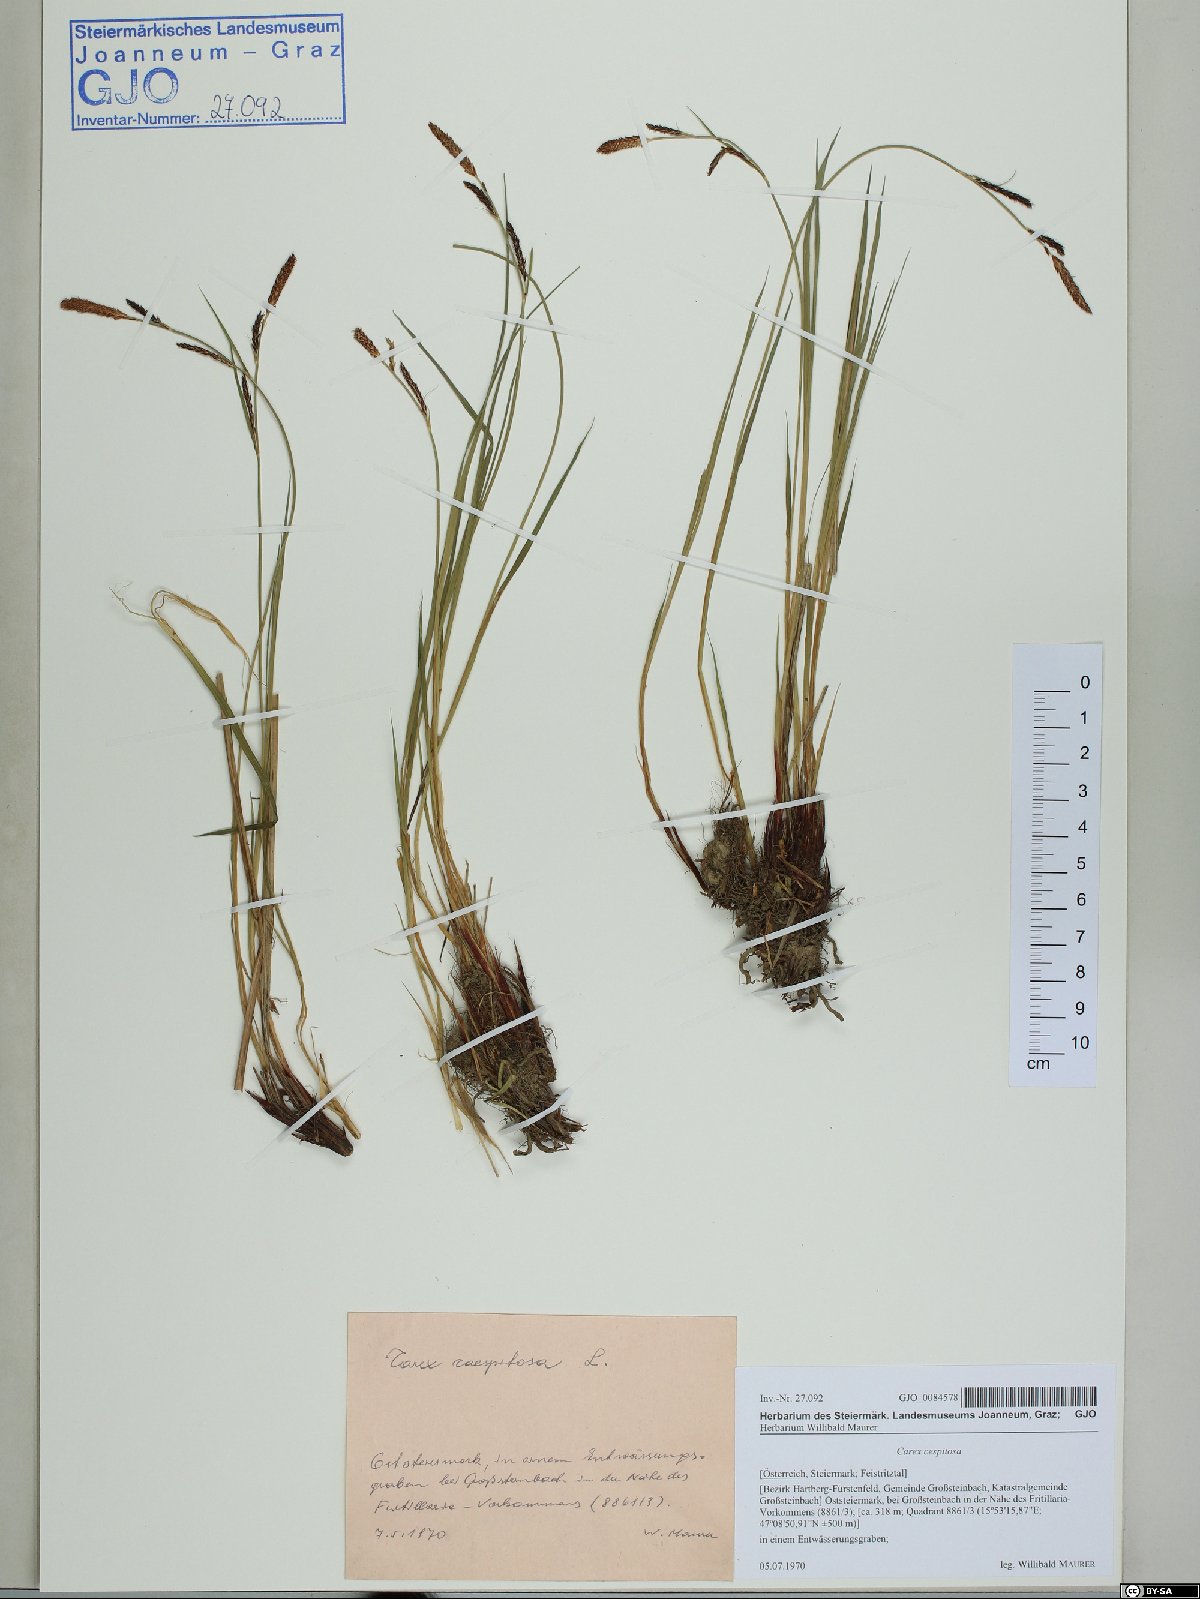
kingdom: Plantae
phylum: Tracheophyta
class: Liliopsida
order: Poales
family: Cyperaceae
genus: Carex
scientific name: Carex cespitosa
